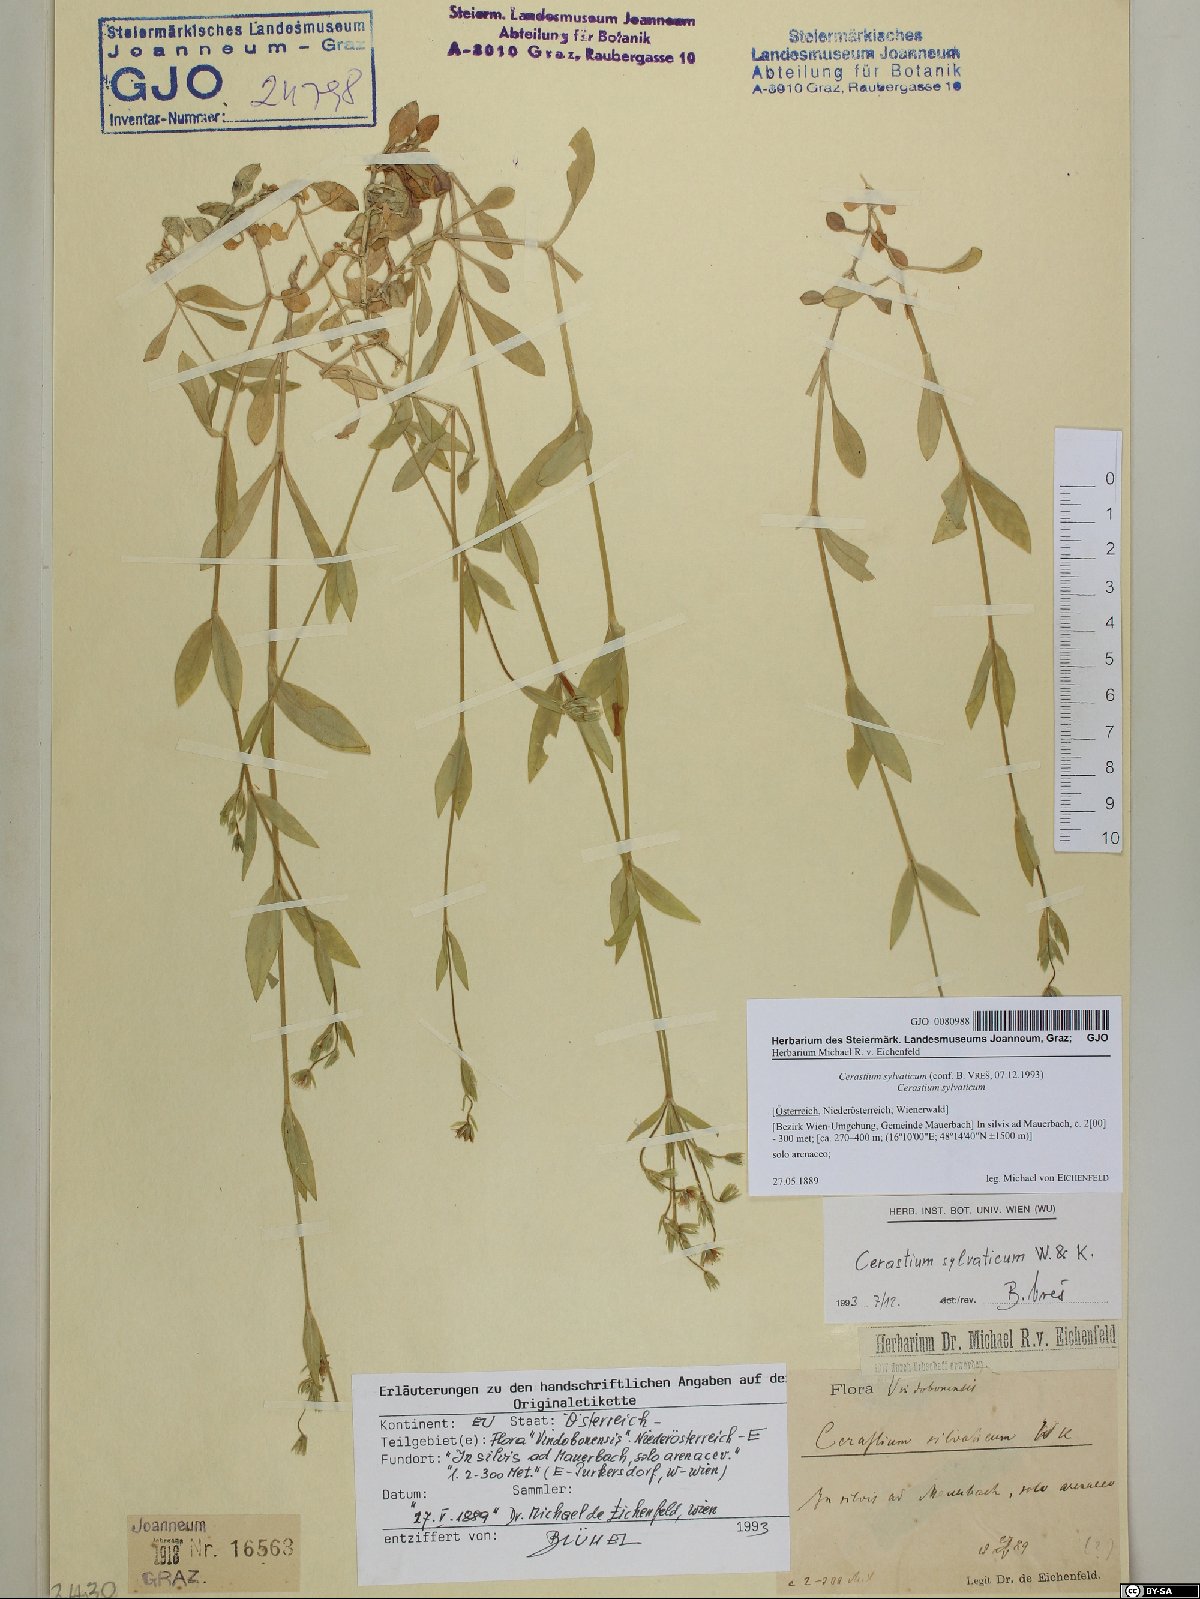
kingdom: Plantae
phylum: Tracheophyta
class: Magnoliopsida
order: Caryophyllales
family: Caryophyllaceae
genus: Cerastium
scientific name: Cerastium sylvaticum
